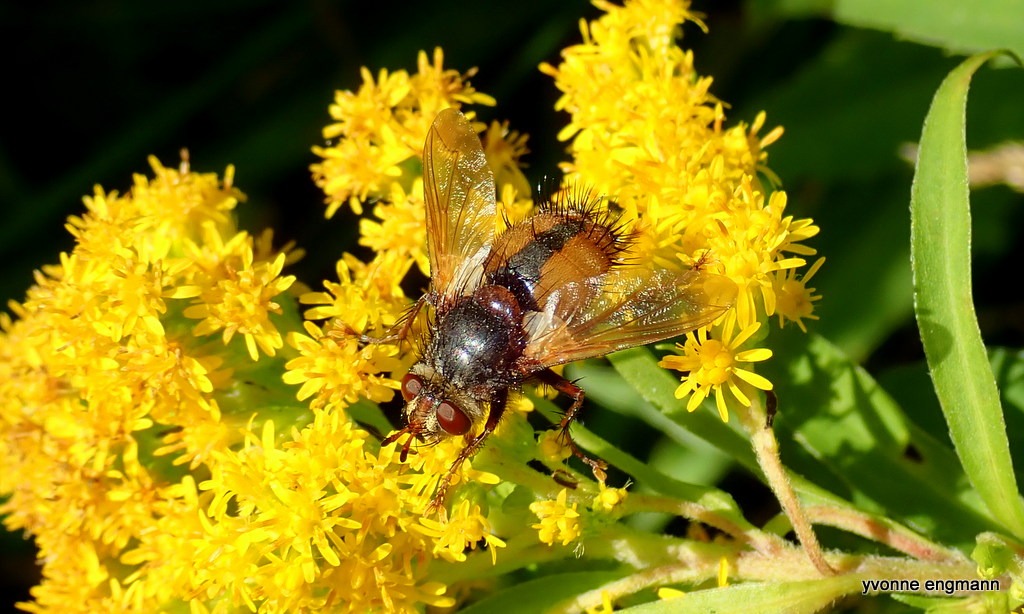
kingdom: Animalia
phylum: Arthropoda
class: Insecta
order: Diptera
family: Tachinidae
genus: Tachina
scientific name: Tachina fera
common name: Mellemfluen oskar
